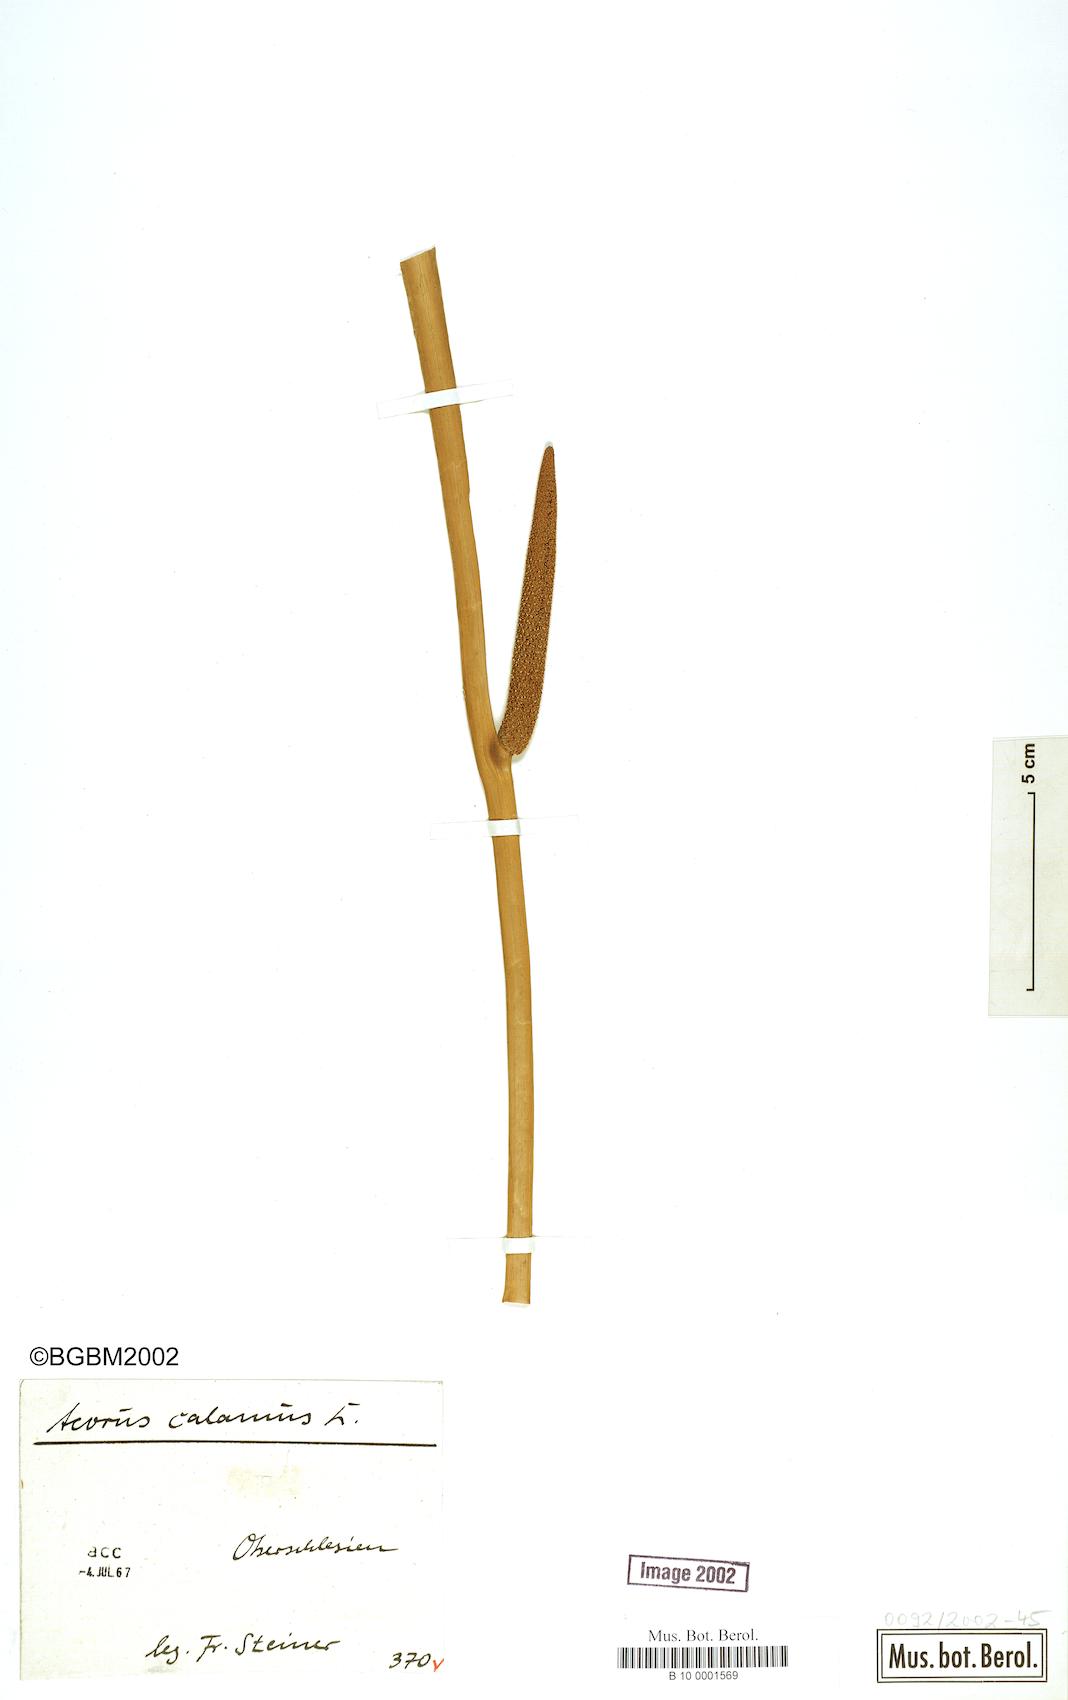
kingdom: Plantae
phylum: Tracheophyta
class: Liliopsida
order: Acorales
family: Acoraceae
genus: Acorus
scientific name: Acorus calamus
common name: Sweet-flag
